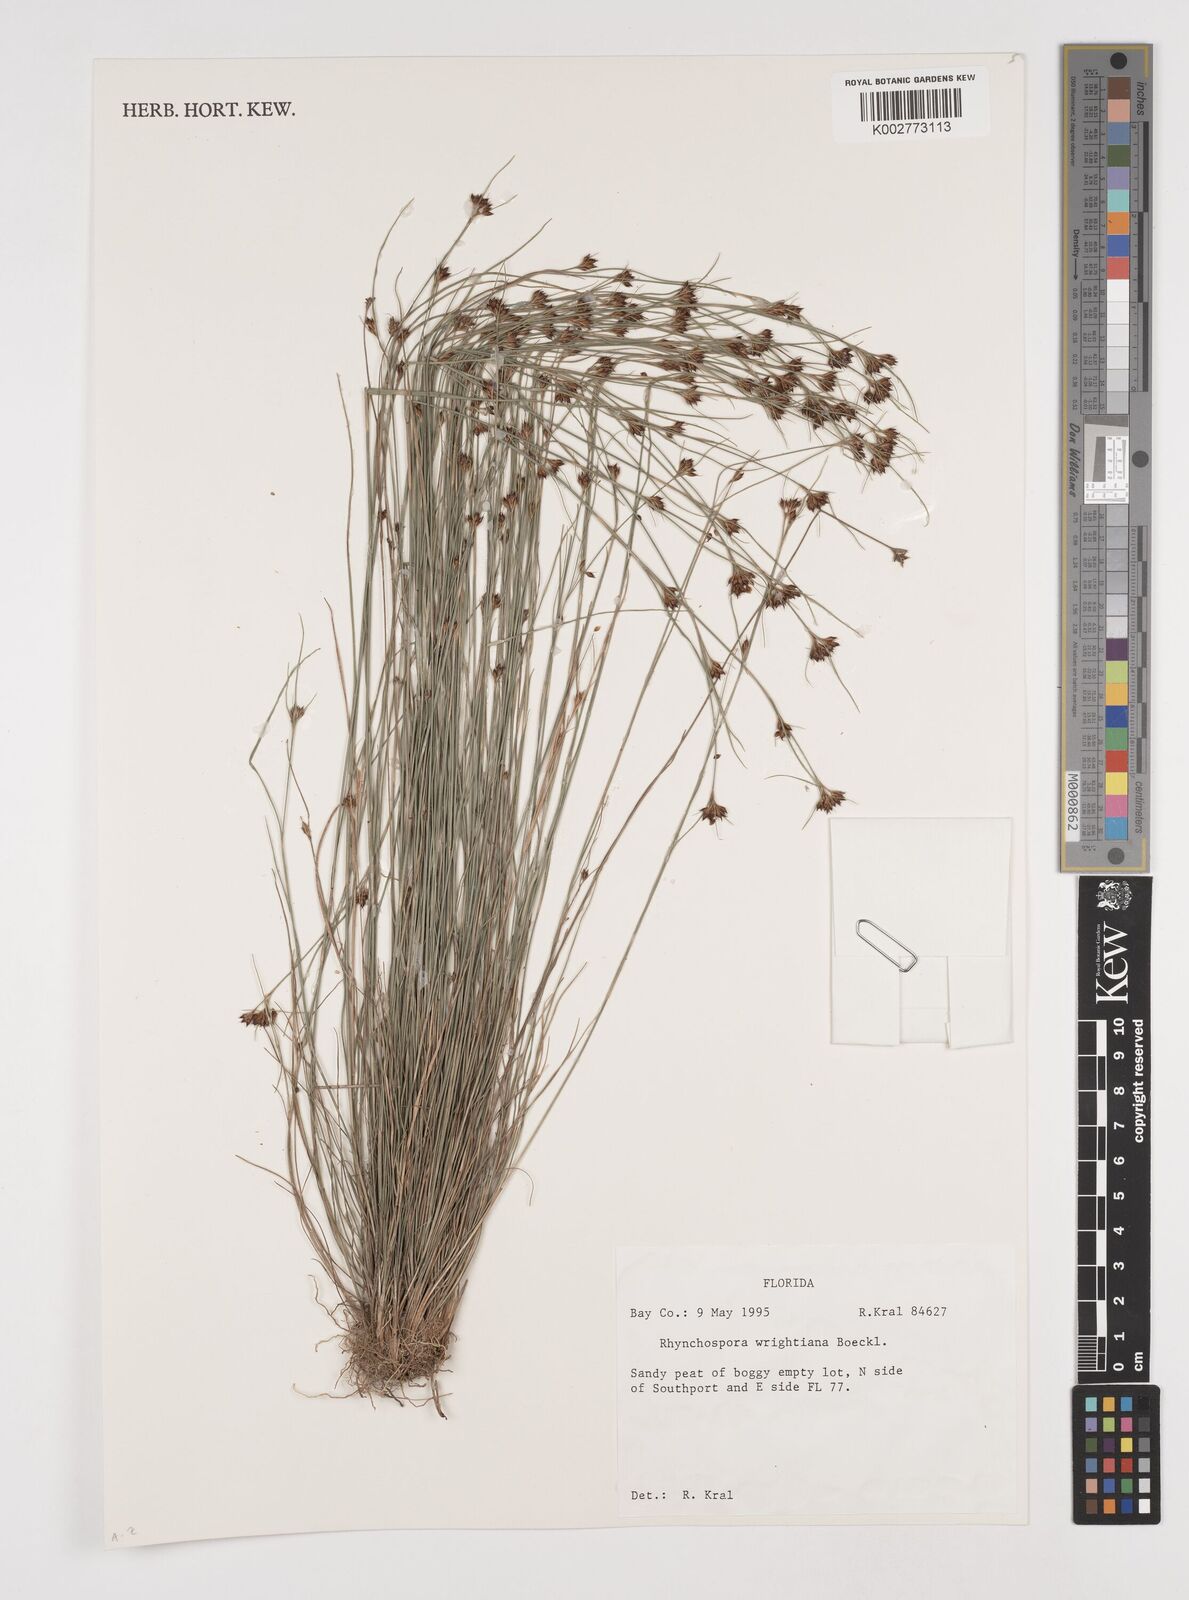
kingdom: Plantae
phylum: Tracheophyta
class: Liliopsida
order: Poales
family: Cyperaceae
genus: Rhynchospora
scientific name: Rhynchospora wrightiana
